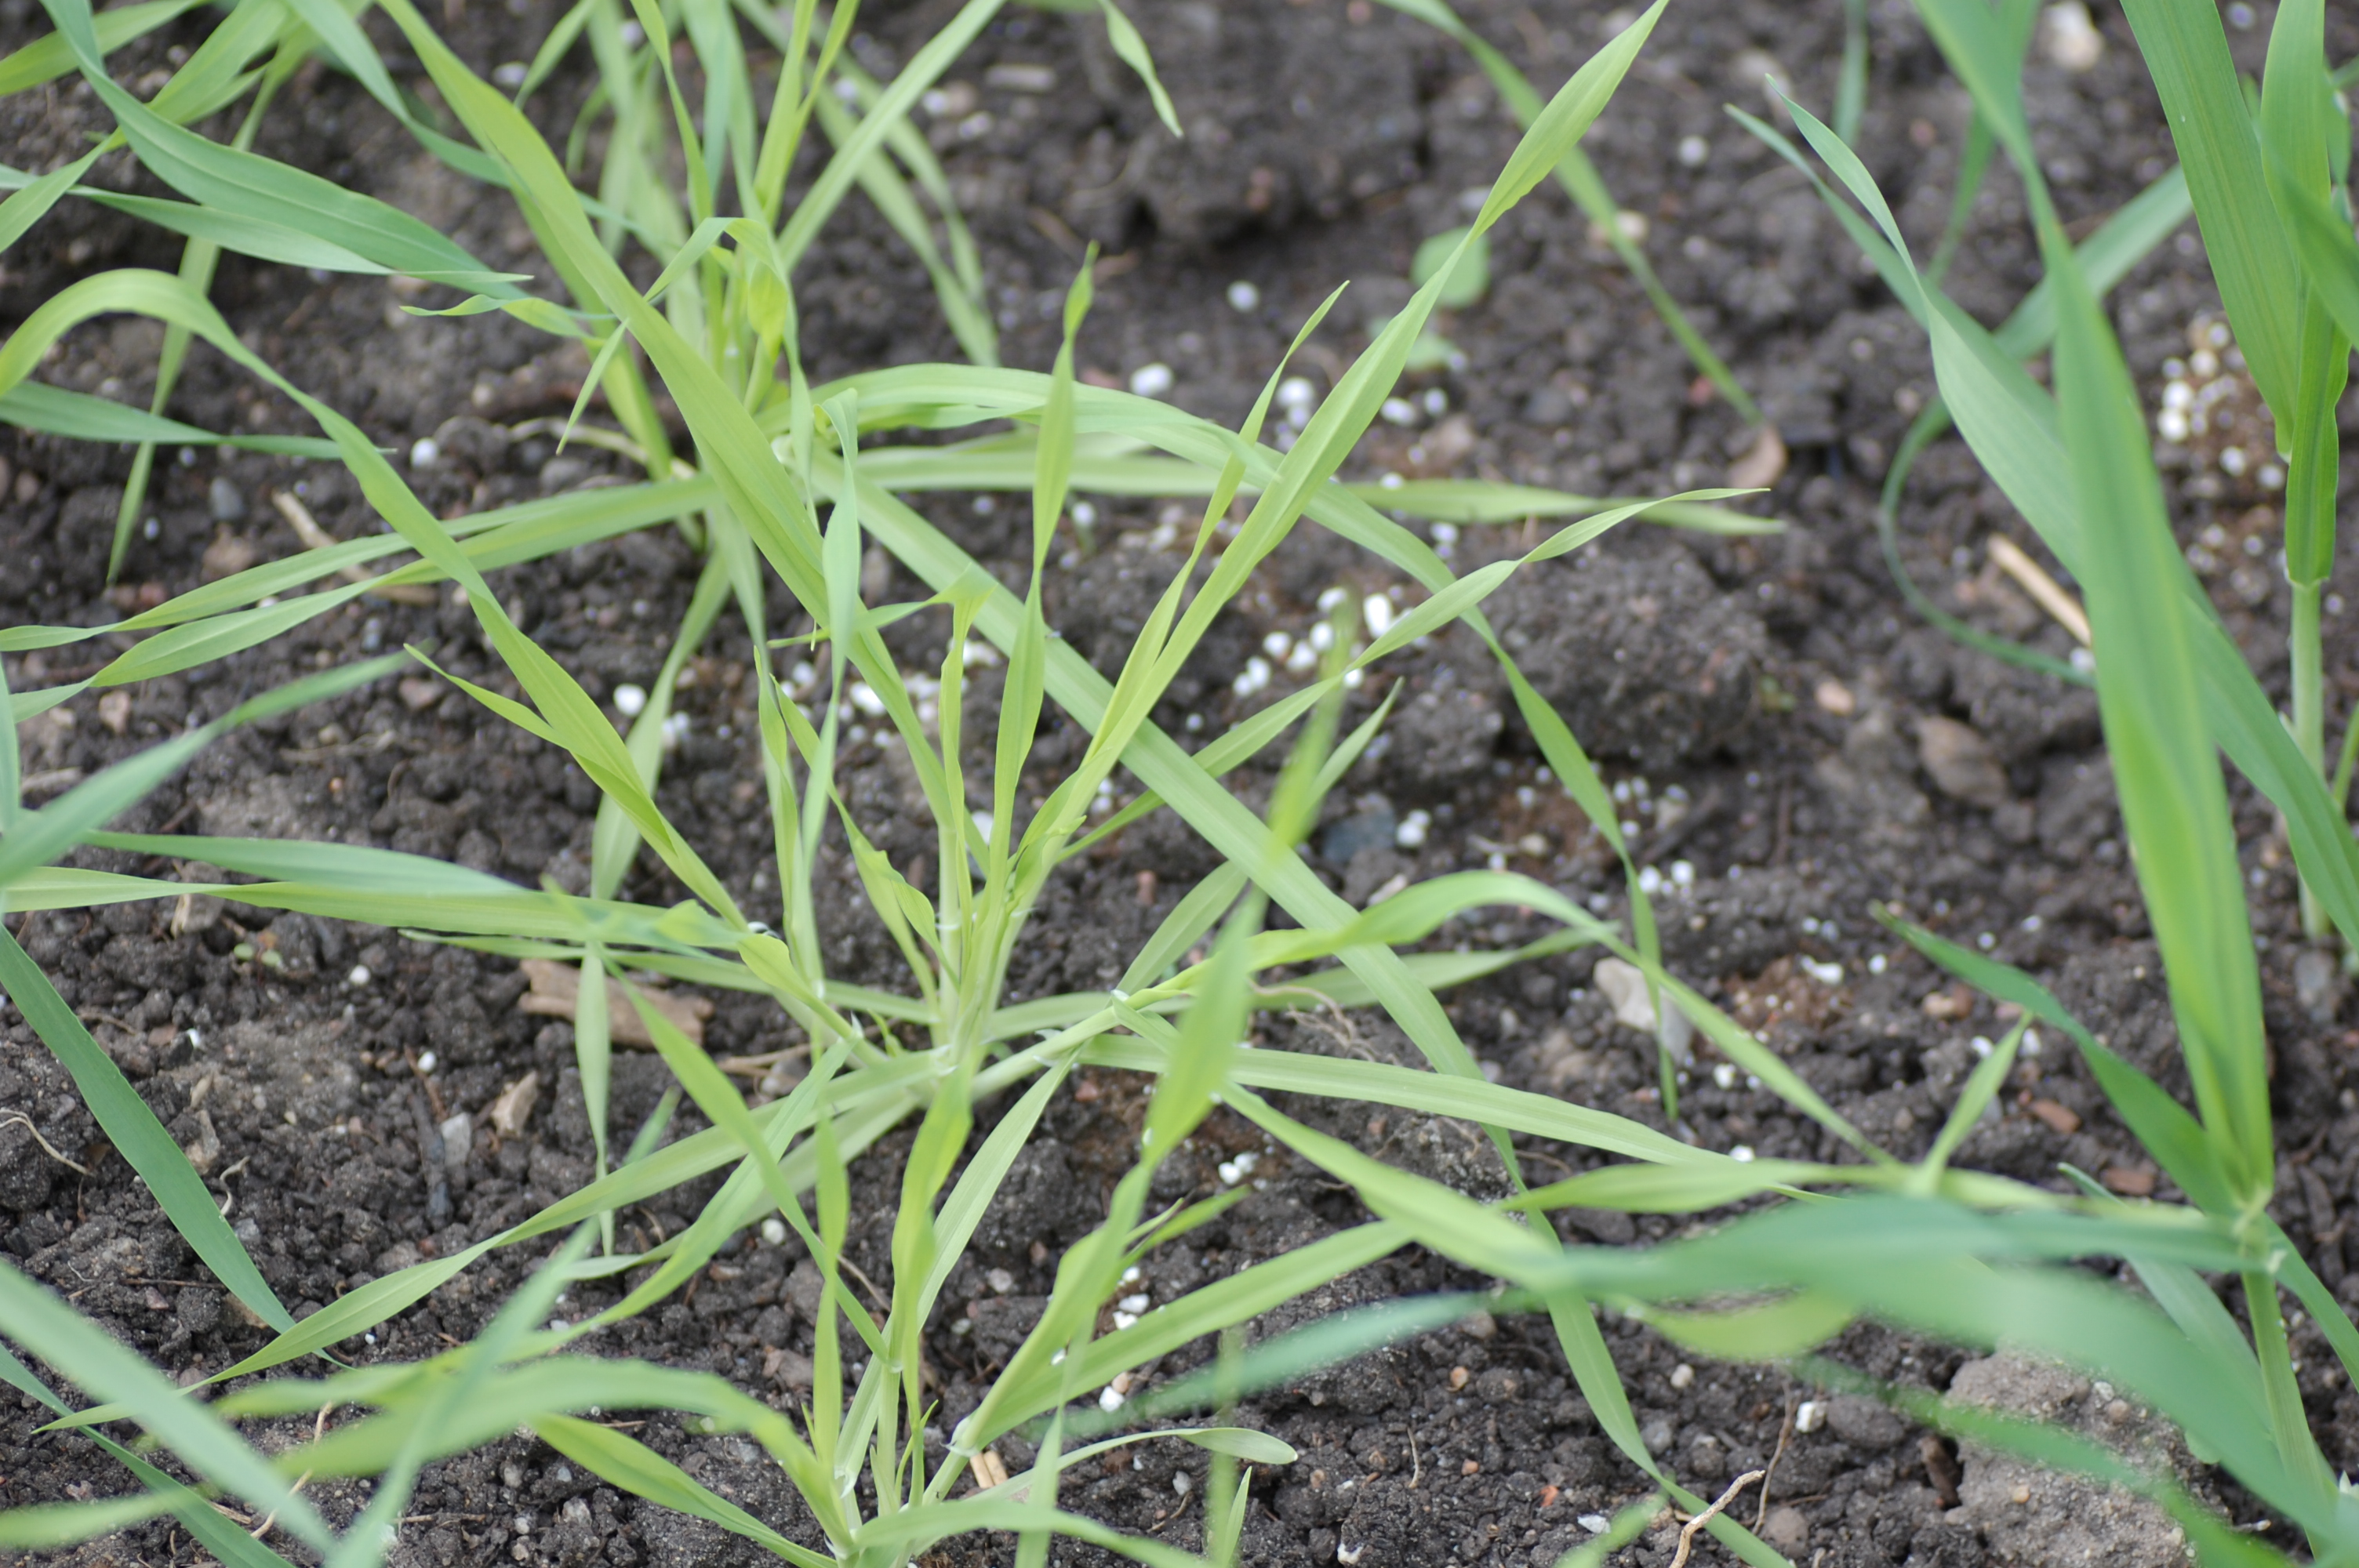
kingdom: Plantae
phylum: Tracheophyta
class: Liliopsida
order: Poales
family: Poaceae
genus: Hordeum
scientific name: Hordeum vulgare
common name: Common barley
